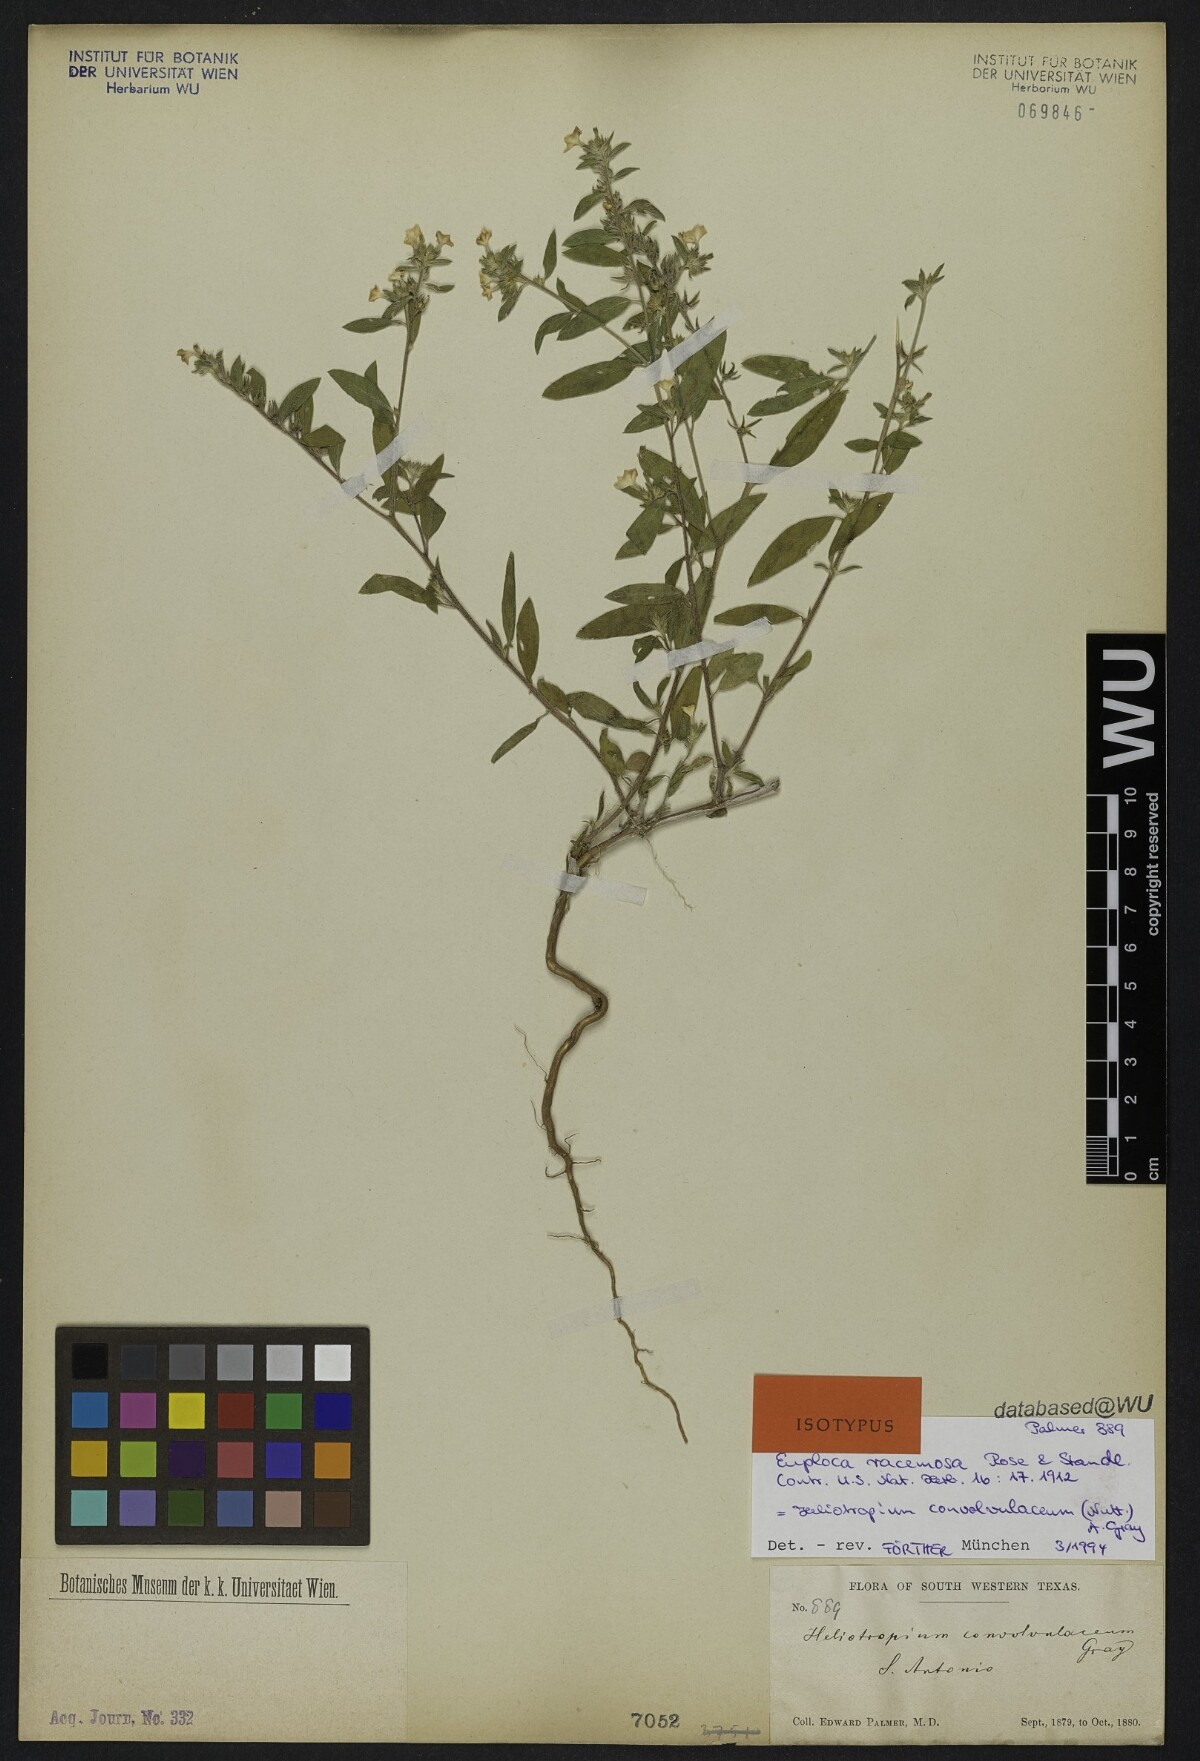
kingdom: Plantae
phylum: Tracheophyta
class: Magnoliopsida
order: Boraginales
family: Heliotropiaceae
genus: Euploca
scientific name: Euploca racemosa
